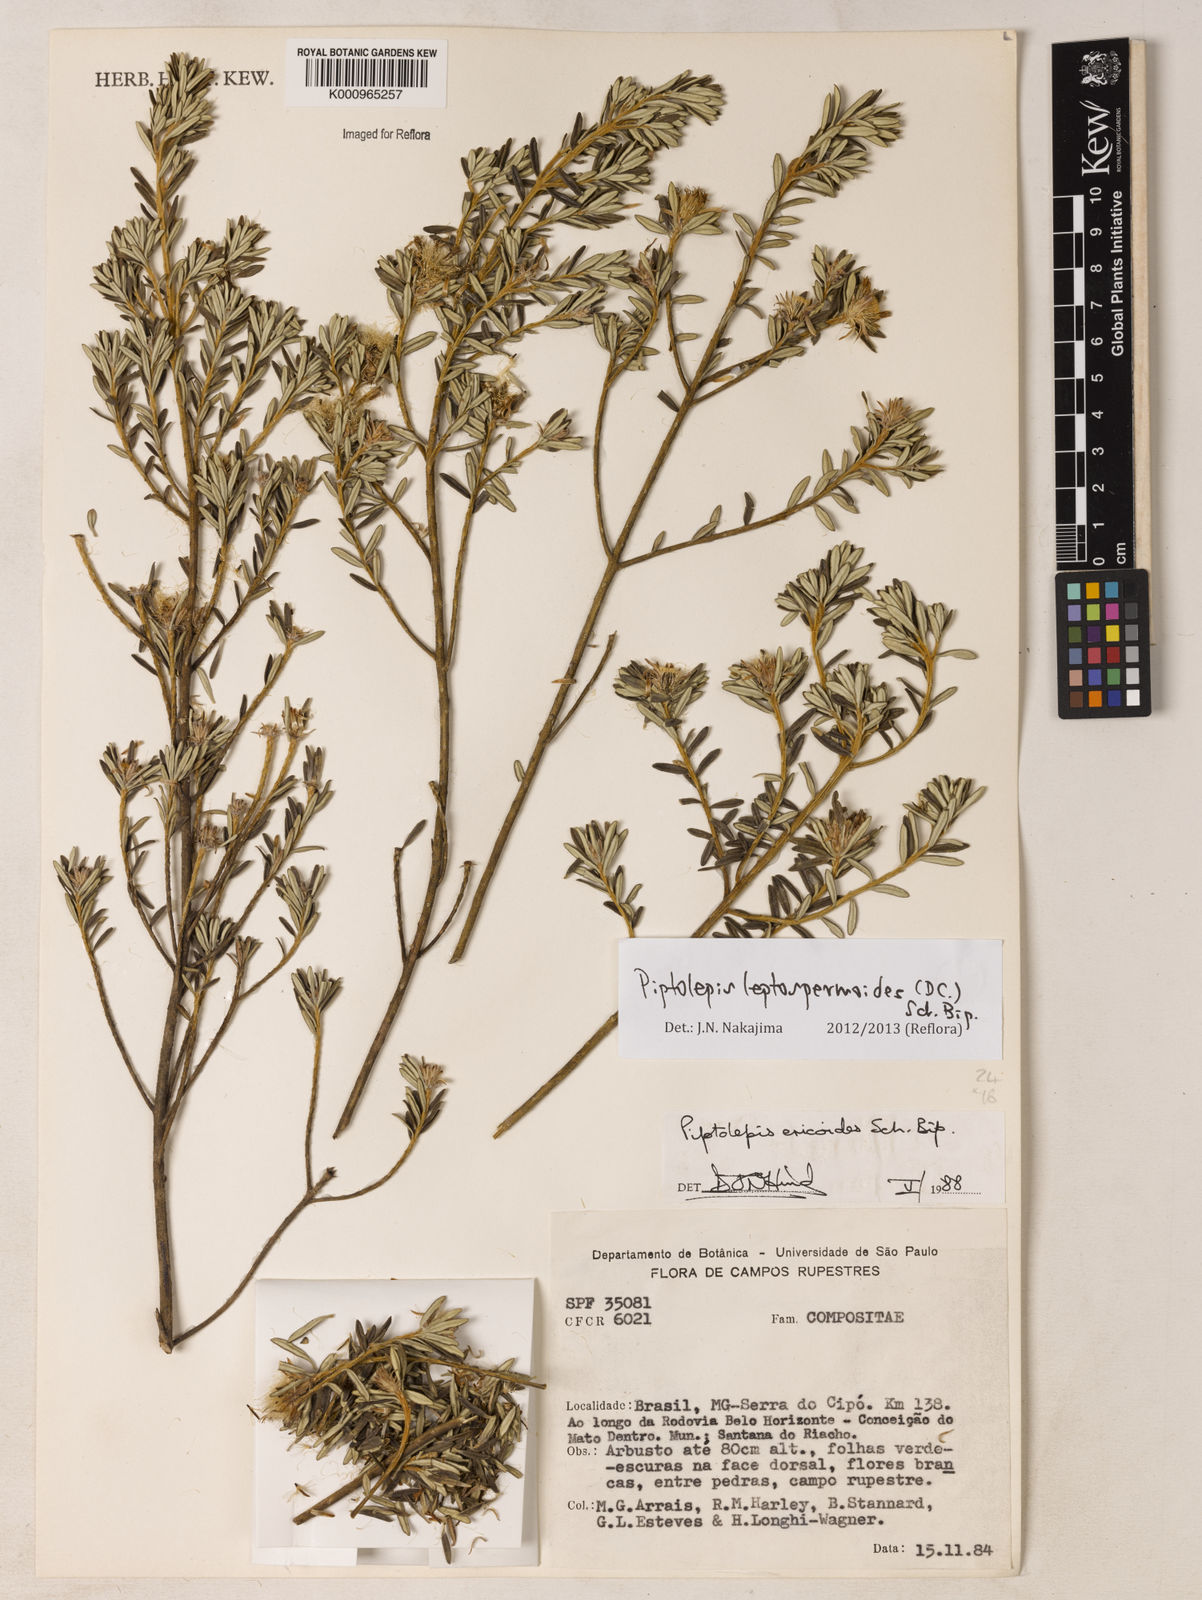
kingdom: Plantae
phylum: Tracheophyta
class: Magnoliopsida
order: Asterales
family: Asteraceae
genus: Piptolepis
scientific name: Piptolepis leptospermoides
